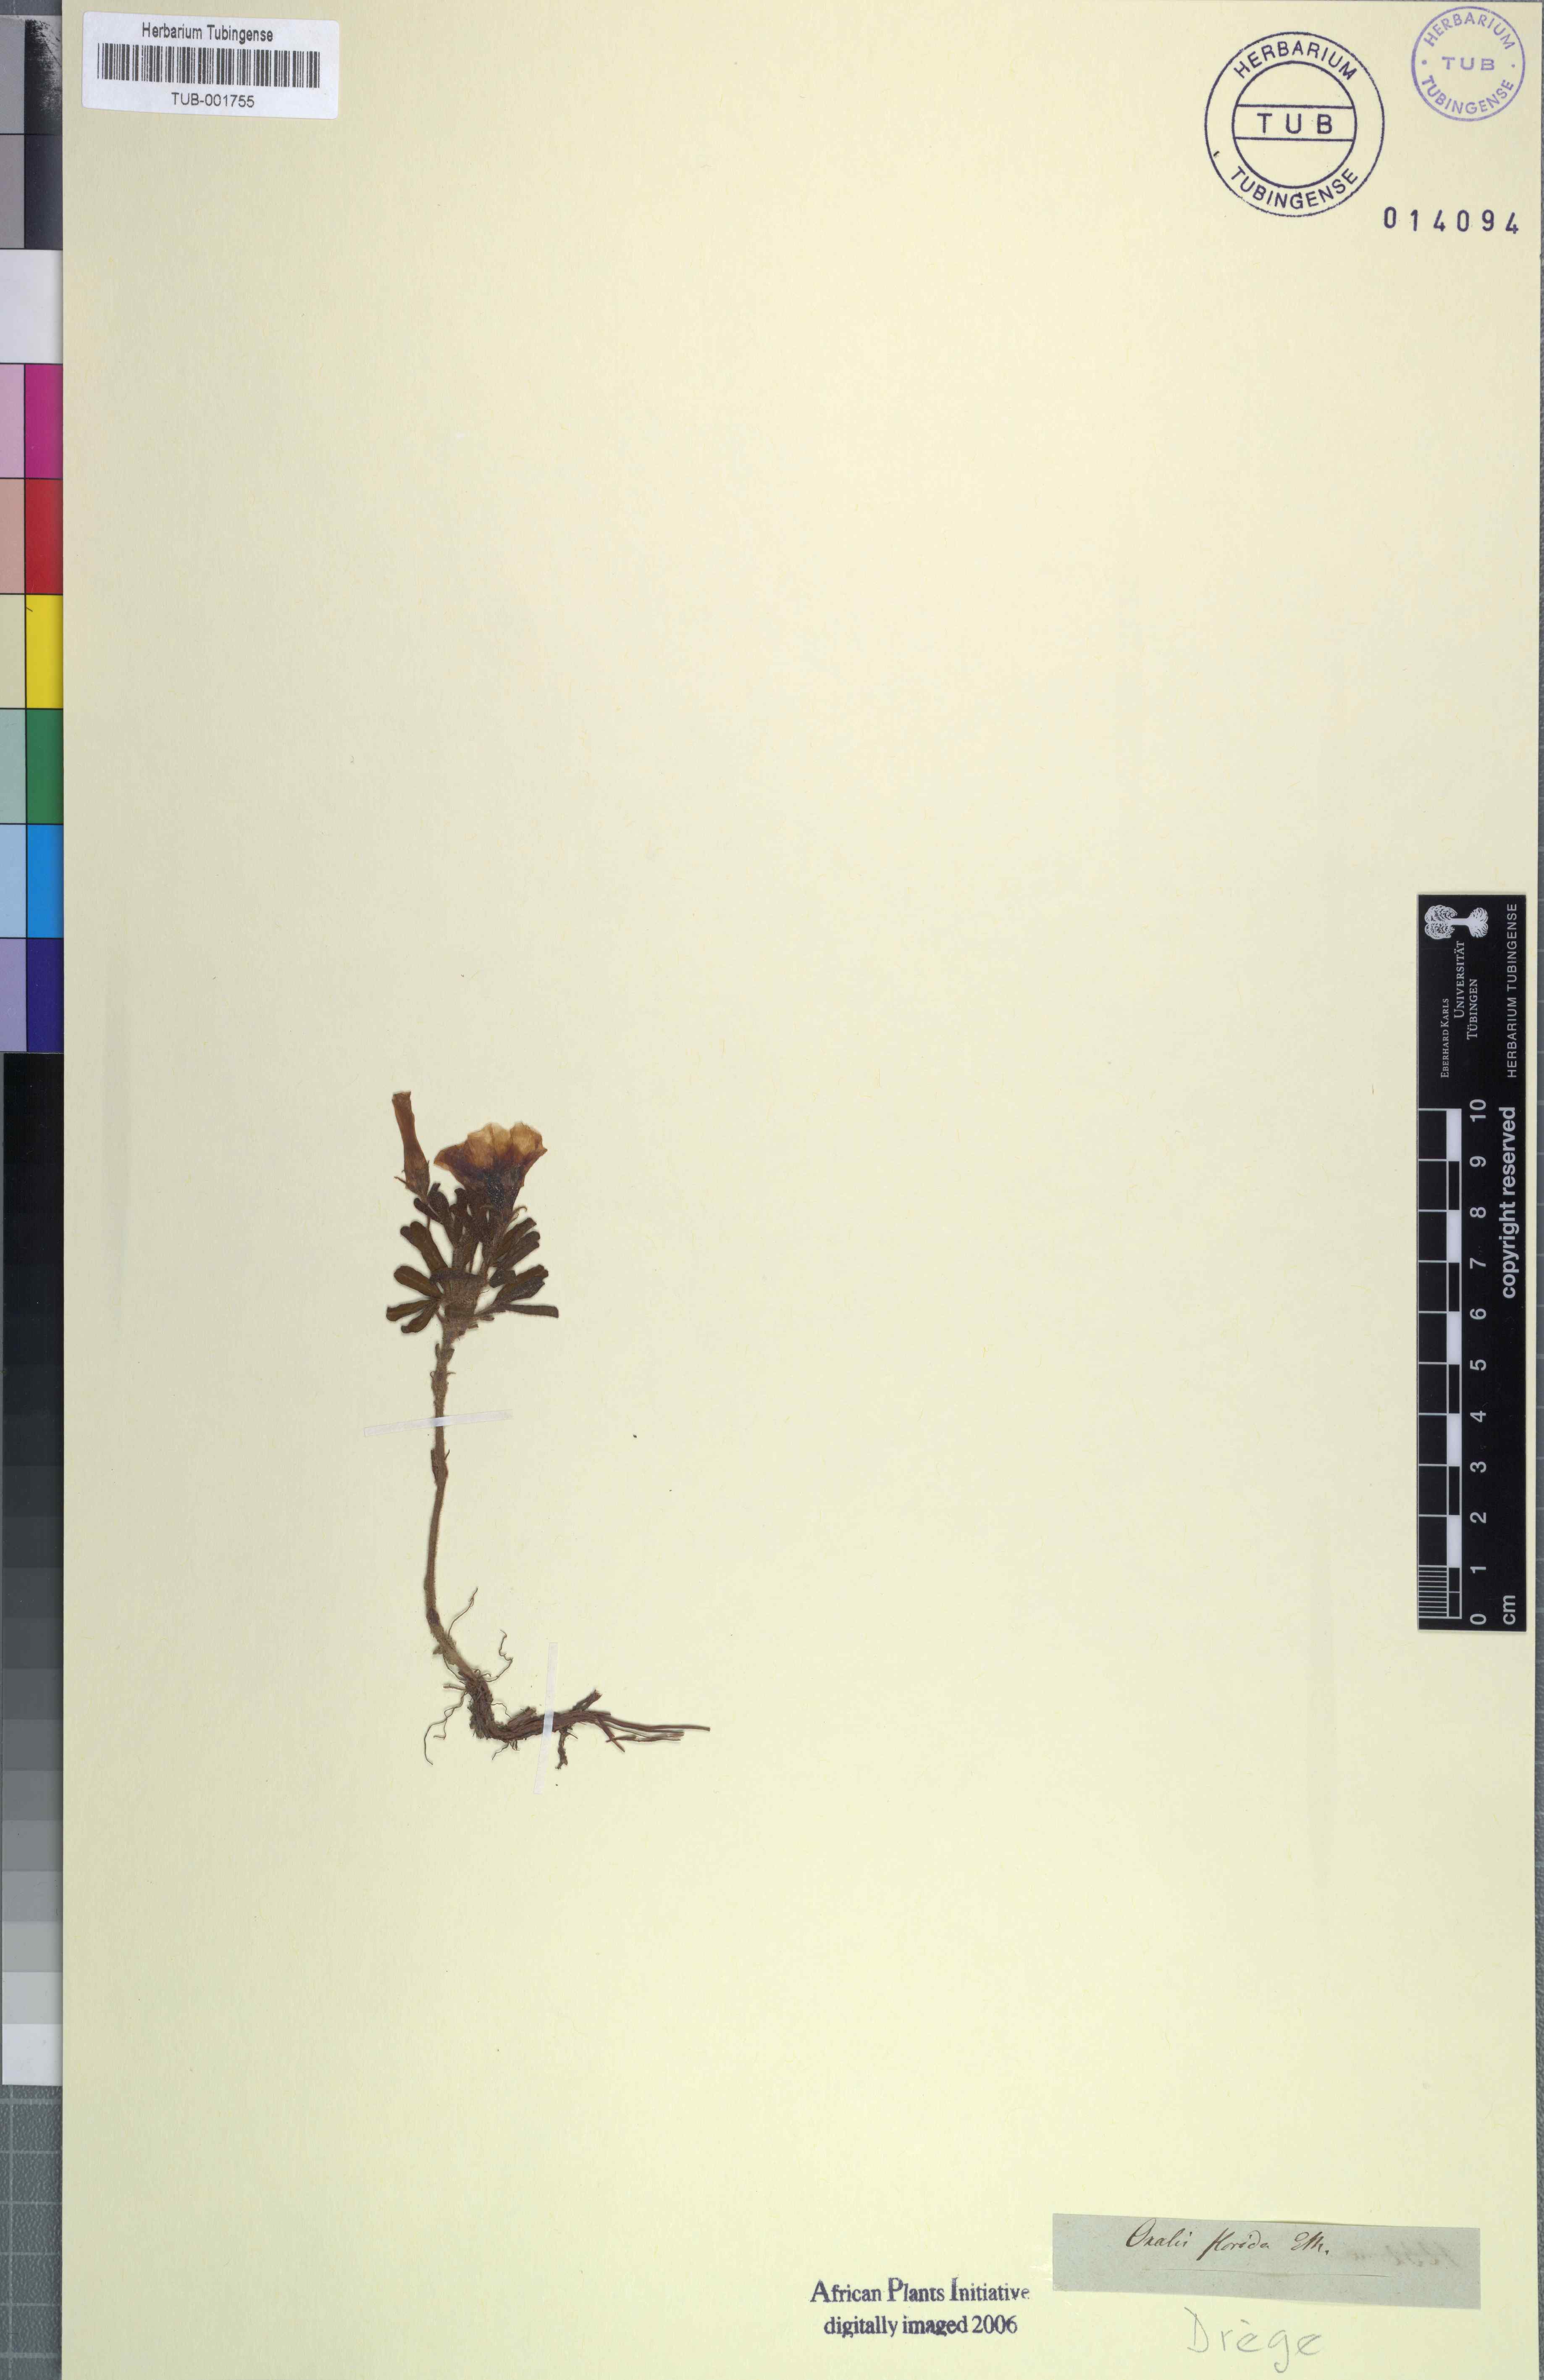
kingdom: Plantae
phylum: Tracheophyta
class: Magnoliopsida
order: Oxalidales
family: Oxalidaceae
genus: Oxalis
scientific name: Oxalis adspersa
